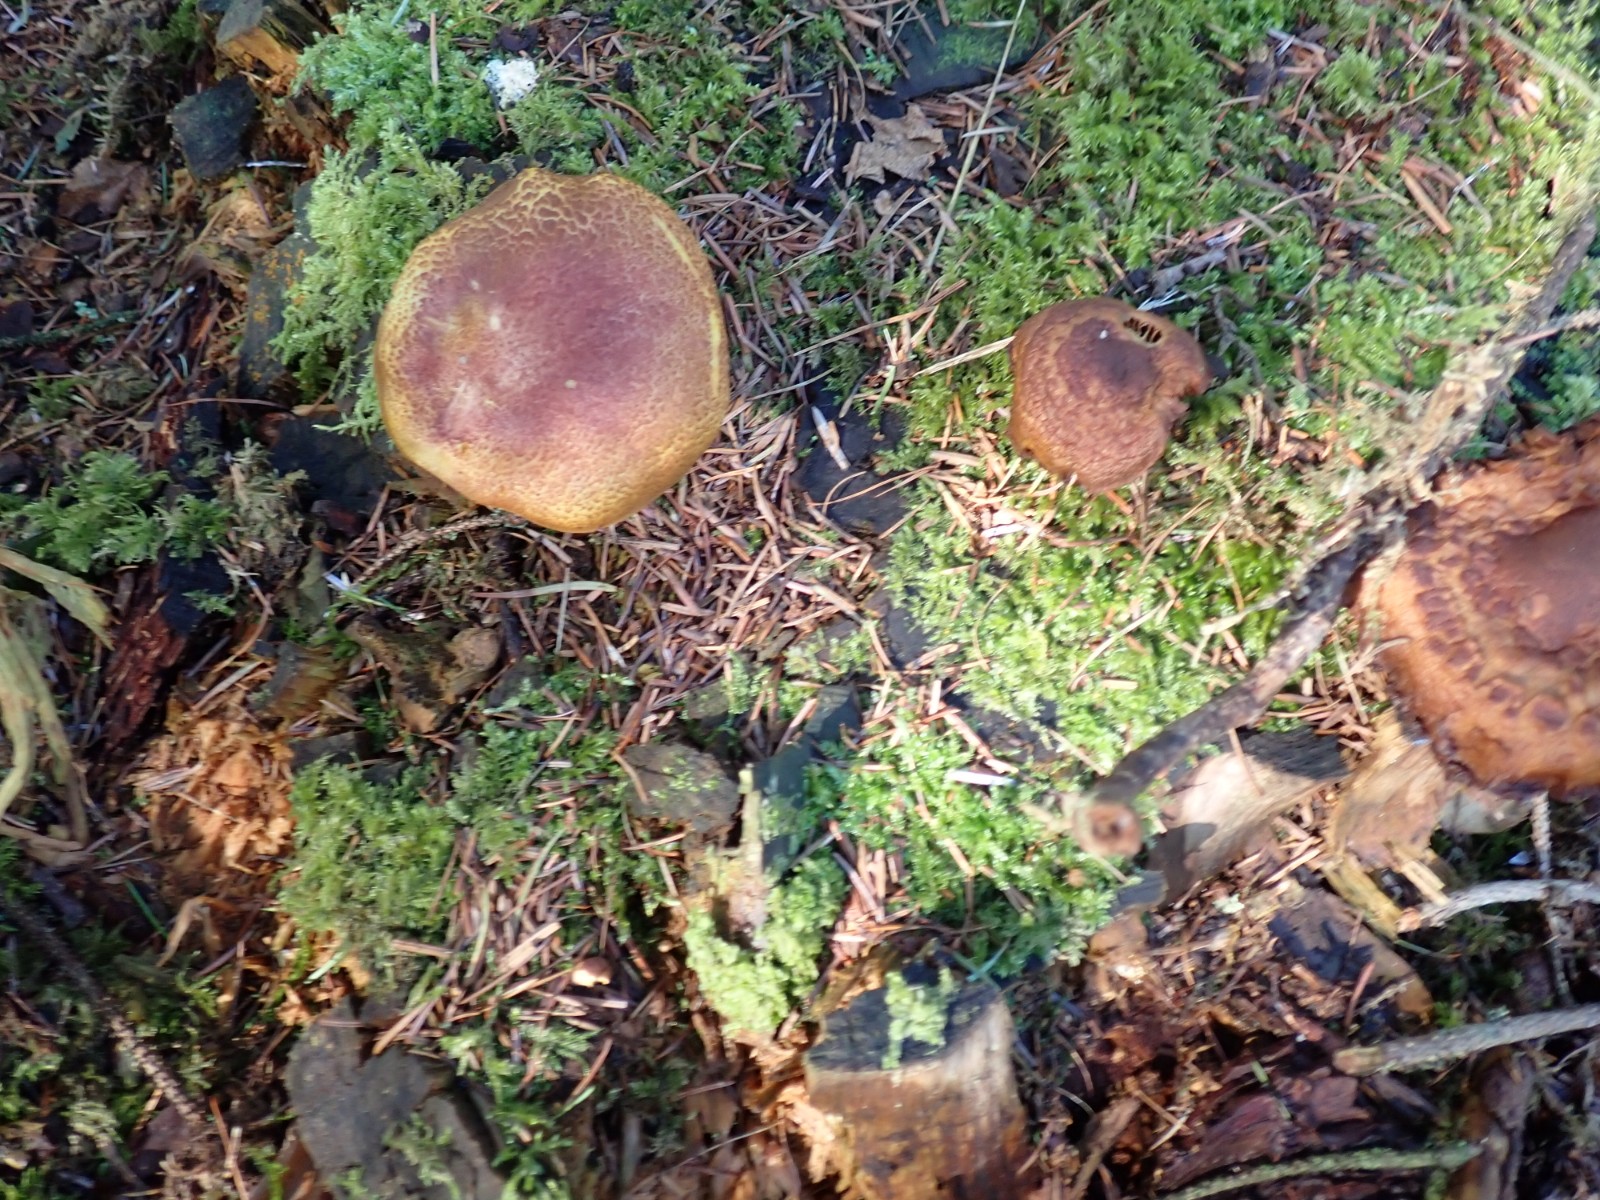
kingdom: Fungi
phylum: Basidiomycota
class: Agaricomycetes
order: Agaricales
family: Tricholomataceae
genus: Tricholomopsis
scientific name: Tricholomopsis rutilans
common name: purpur-væbnerhat
